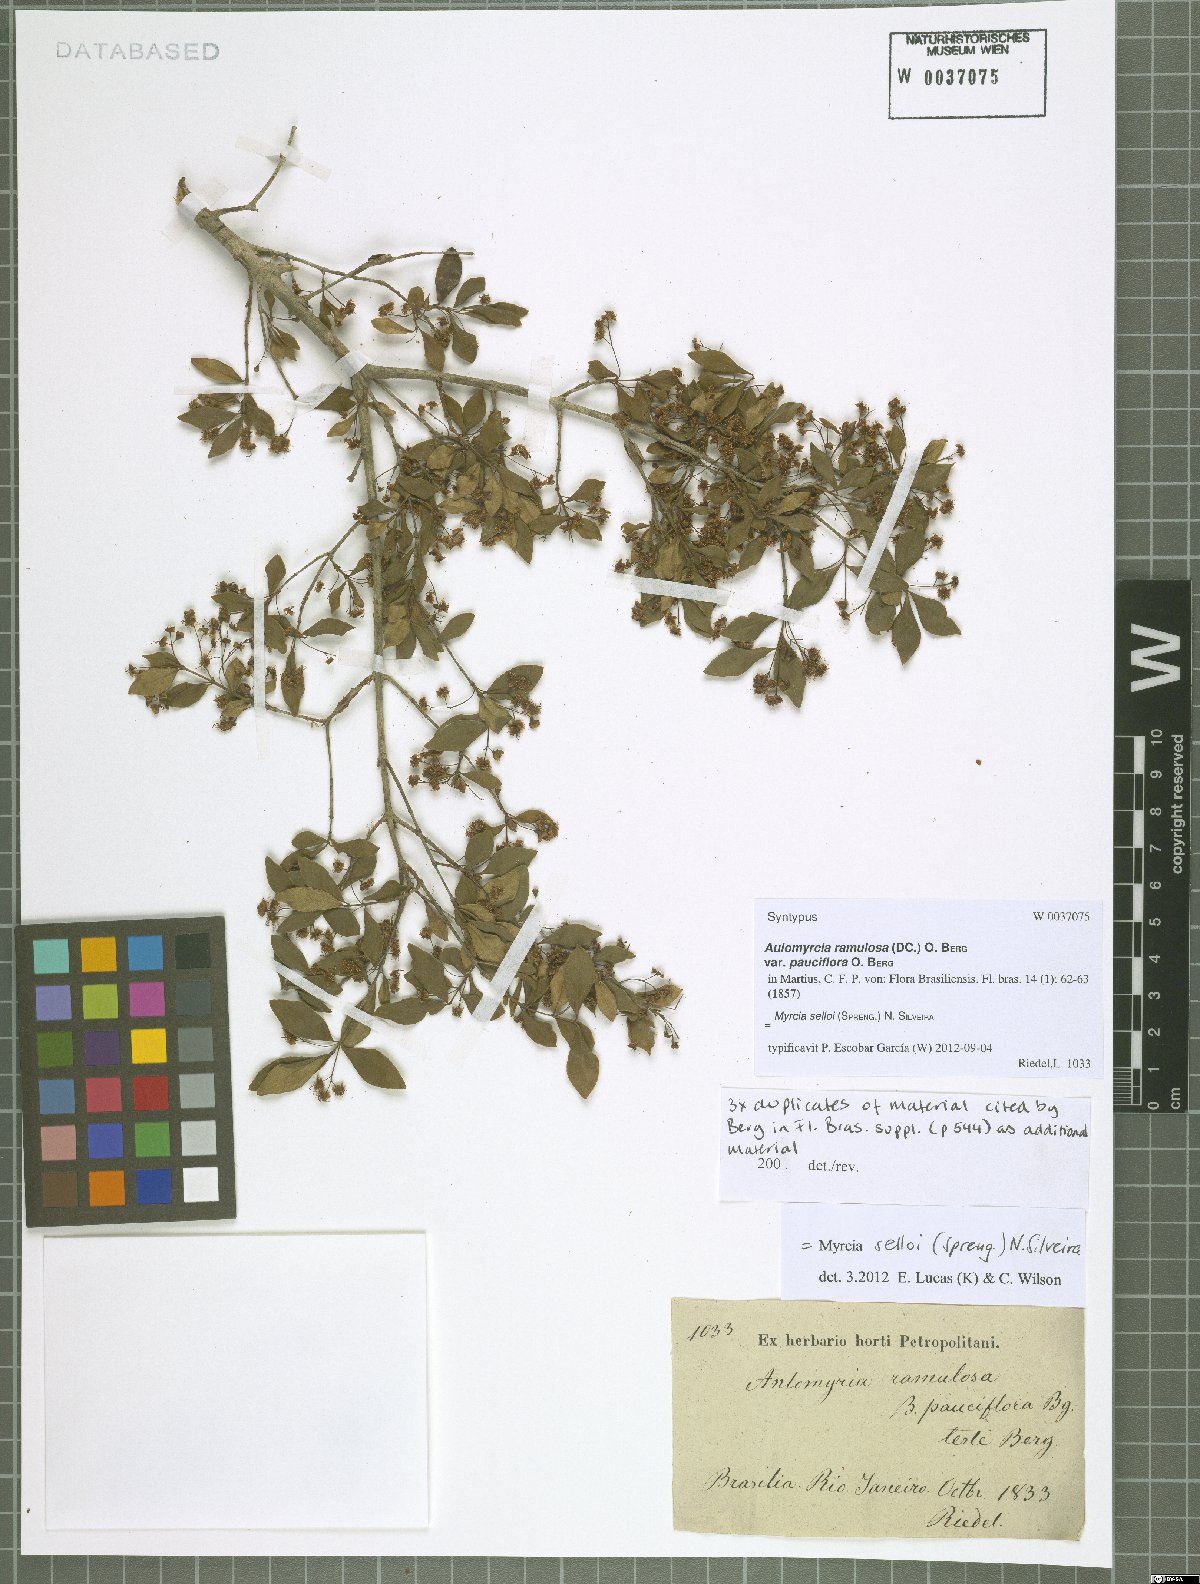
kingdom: Plantae
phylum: Tracheophyta
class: Magnoliopsida
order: Myrtales
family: Myrtaceae
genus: Myrcia
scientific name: Myrcia selloi
